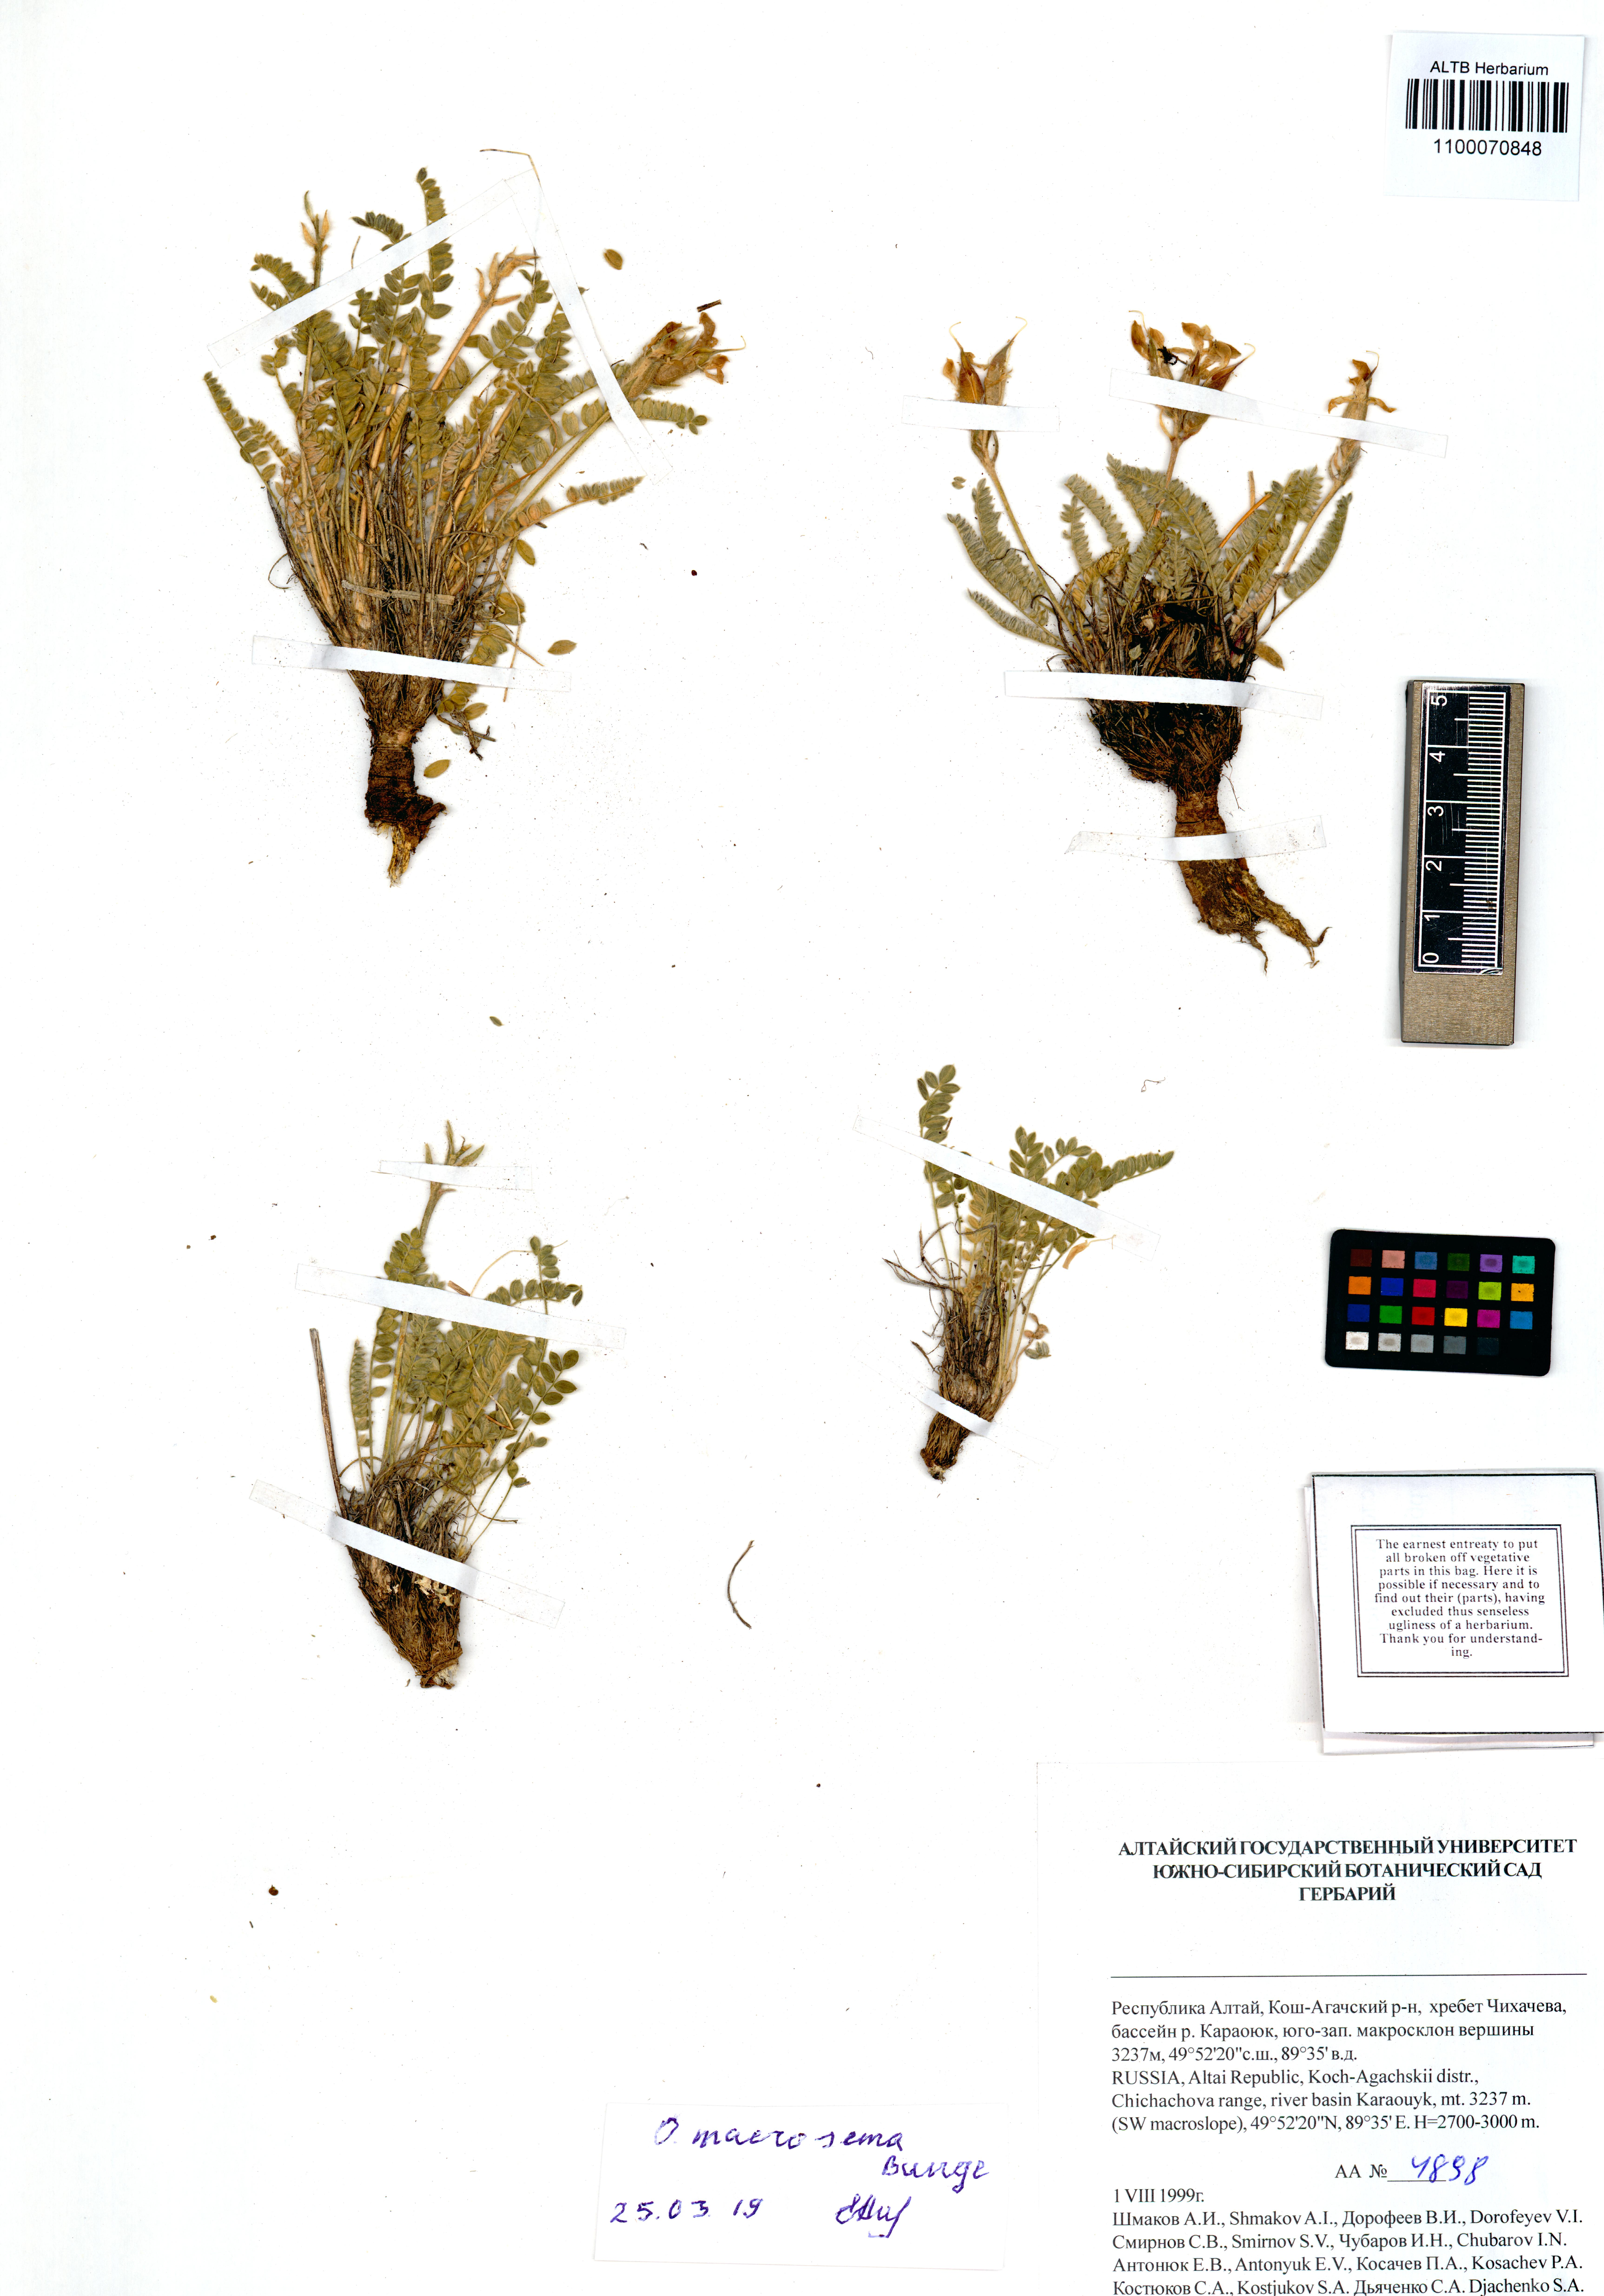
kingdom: Plantae
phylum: Tracheophyta
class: Magnoliopsida
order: Fabales
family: Fabaceae
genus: Oxytropis
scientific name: Oxytropis macrosema
